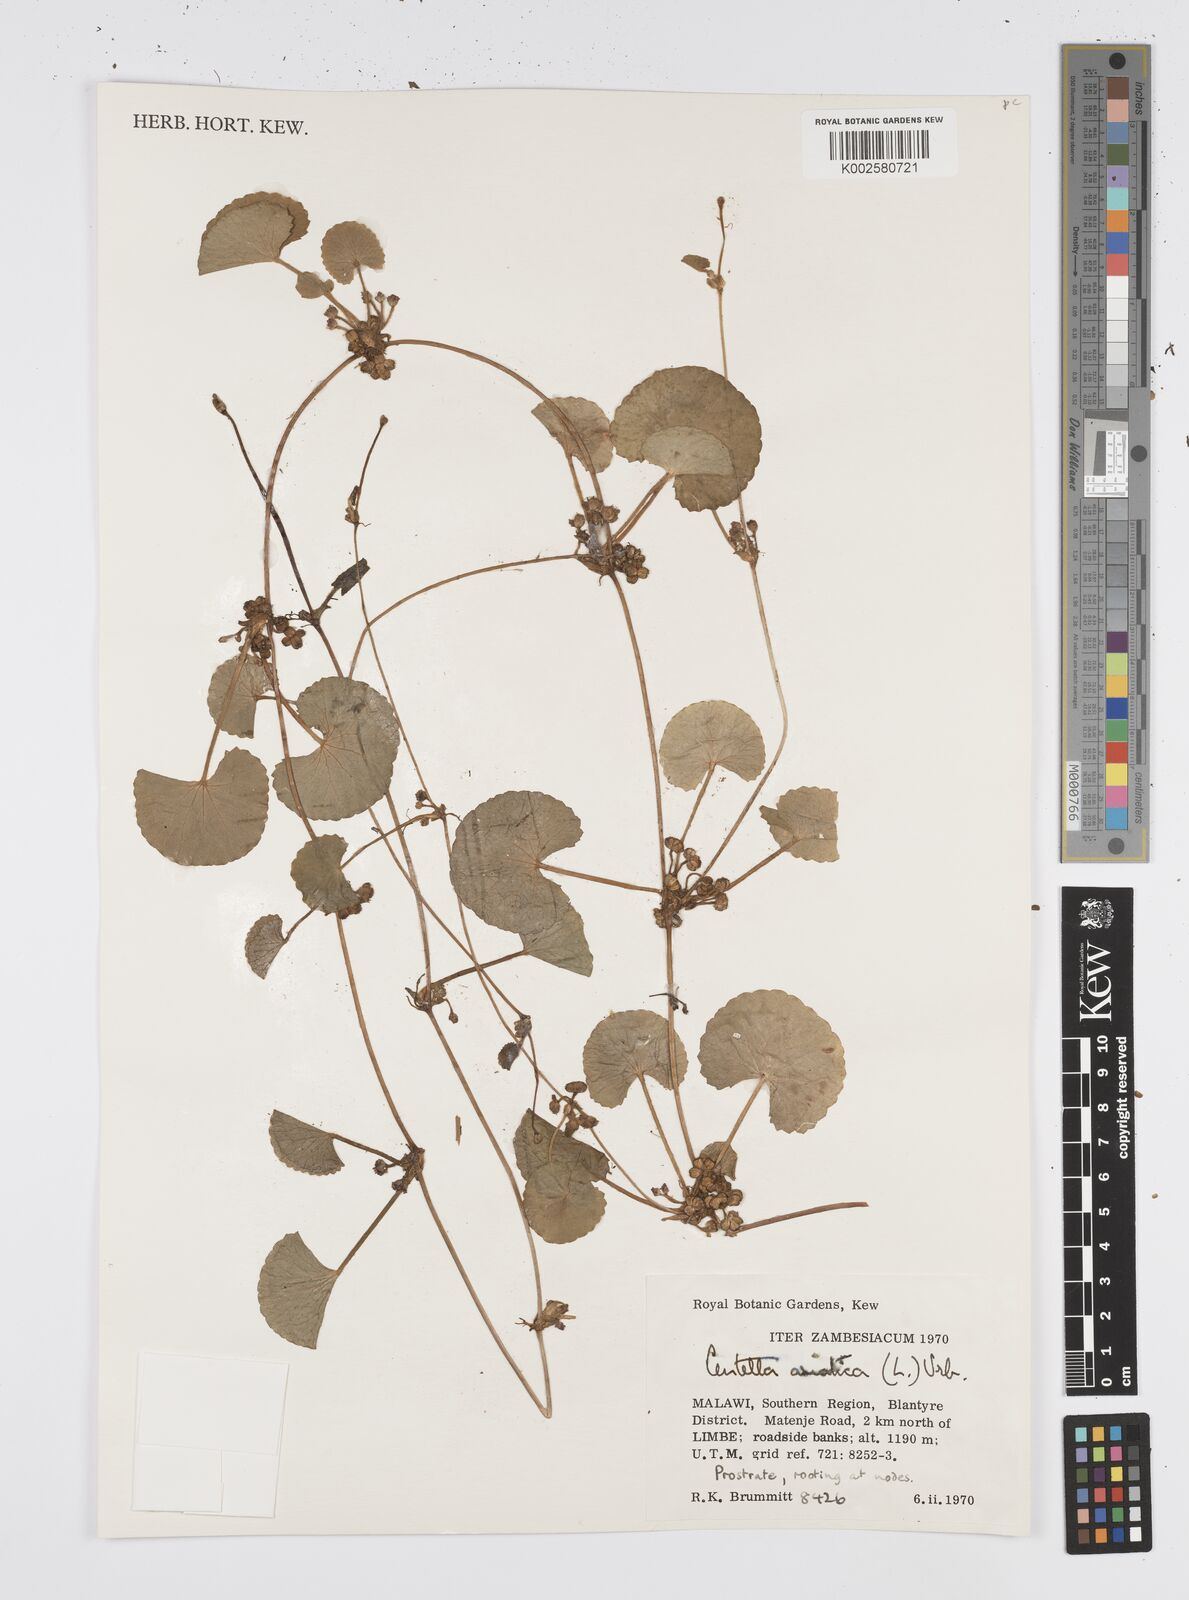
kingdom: Plantae
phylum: Tracheophyta
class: Magnoliopsida
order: Apiales
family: Apiaceae
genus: Centella
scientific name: Centella asiatica
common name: Spadeleaf
